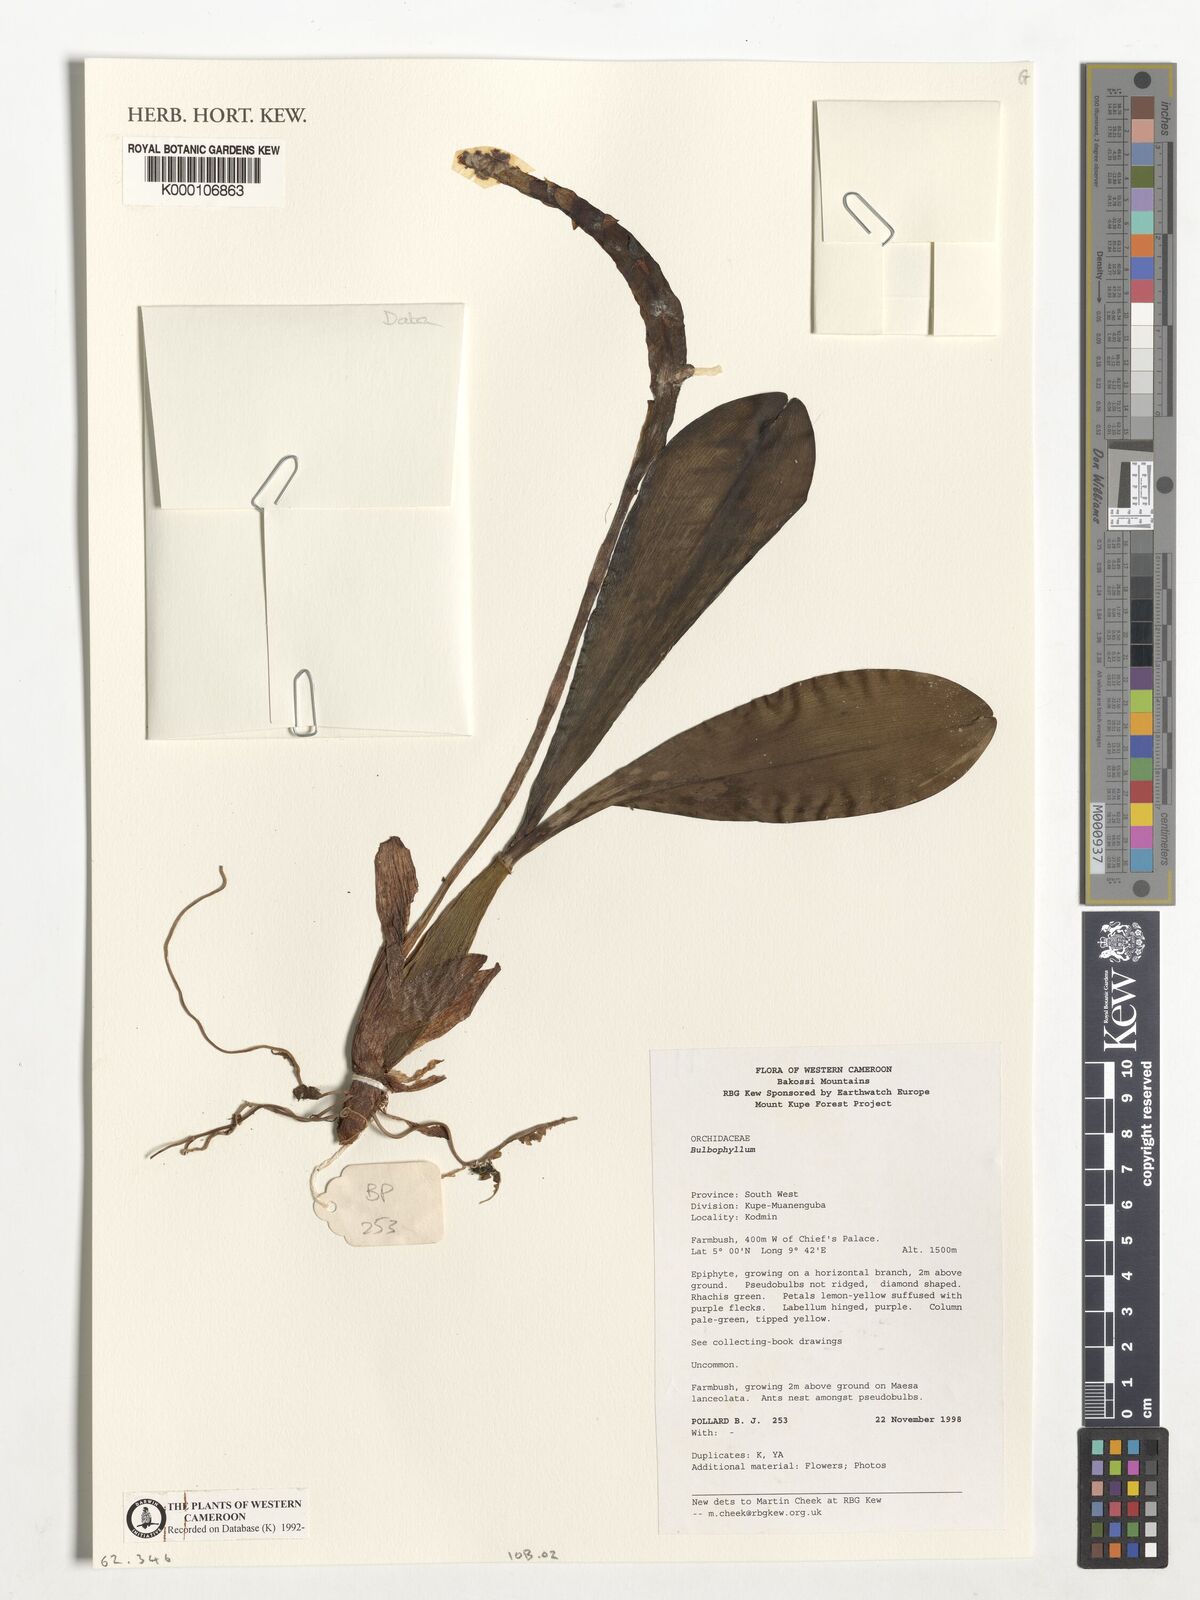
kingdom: Plantae
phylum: Tracheophyta
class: Liliopsida
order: Asparagales
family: Orchidaceae
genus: Bulbophyllum
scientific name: Bulbophyllum calyptratum
